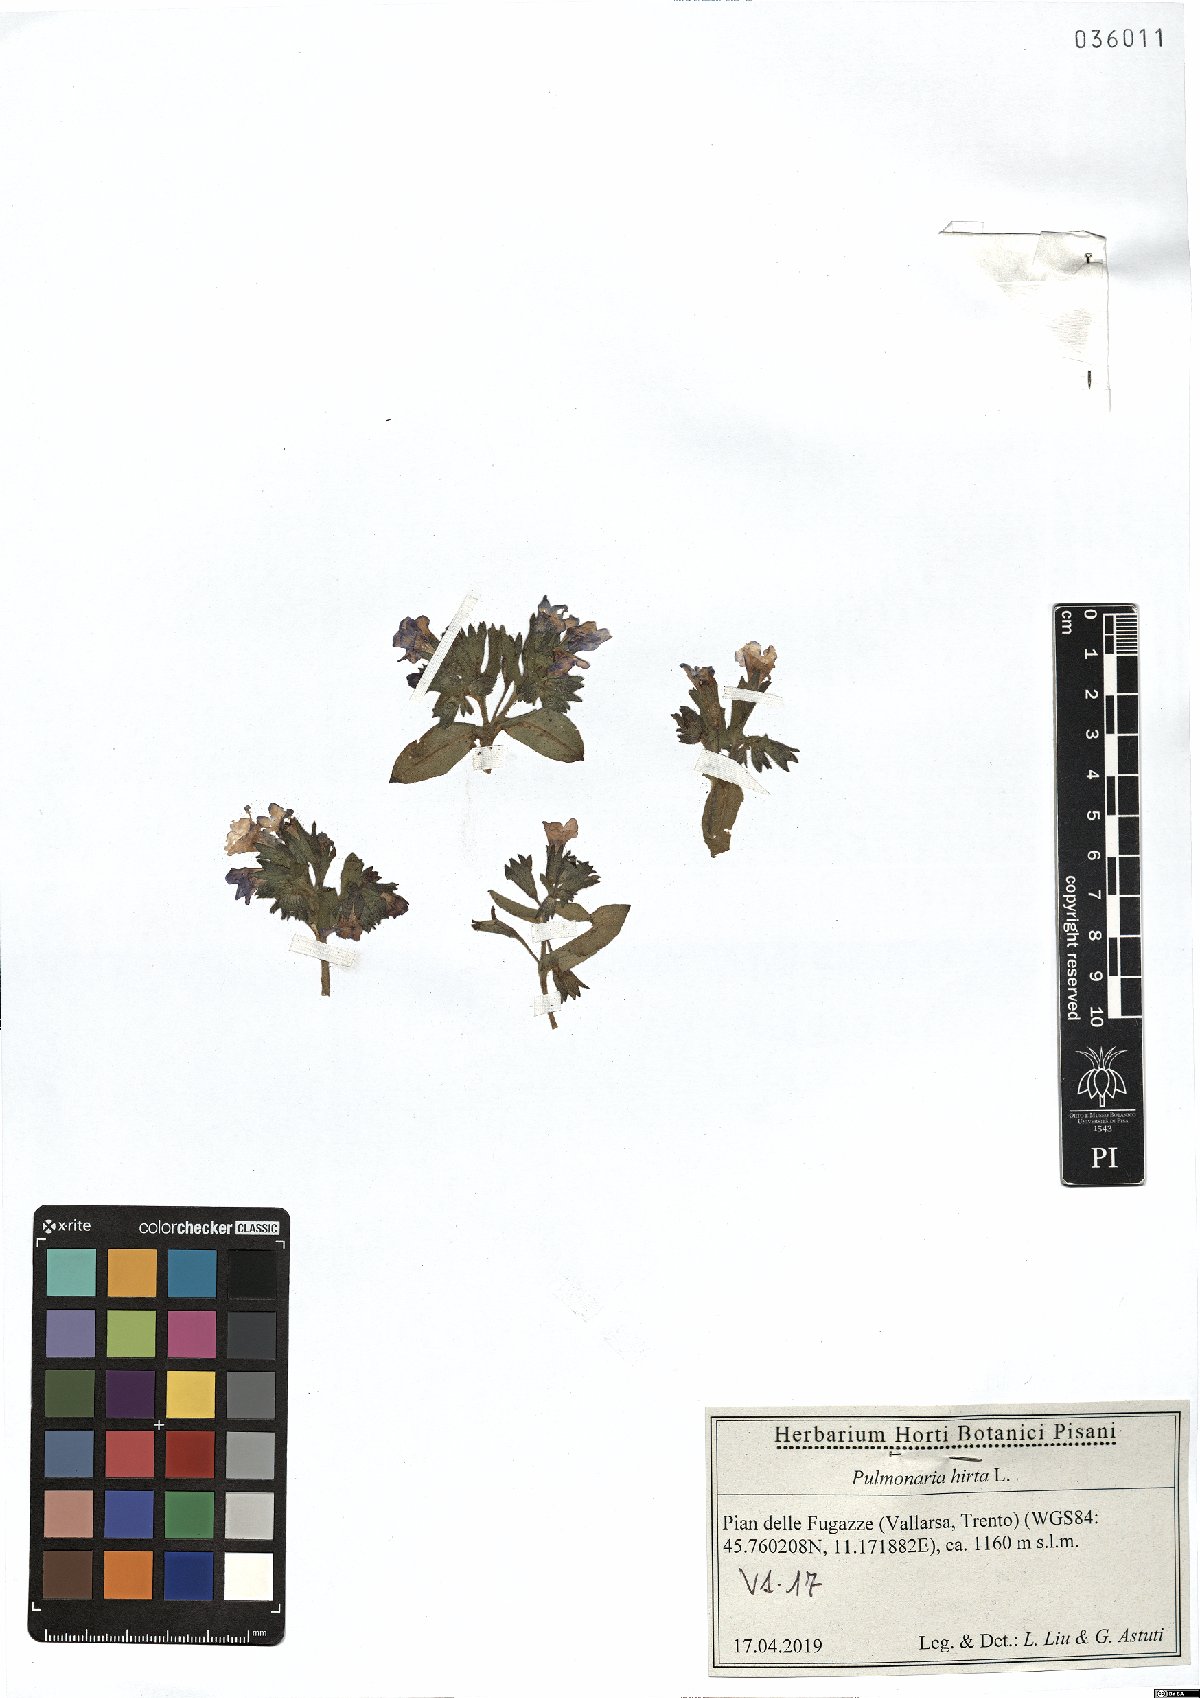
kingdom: Plantae
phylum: Tracheophyta
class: Magnoliopsida
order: Boraginales
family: Boraginaceae
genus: Pulmonaria
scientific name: Pulmonaria hirta
